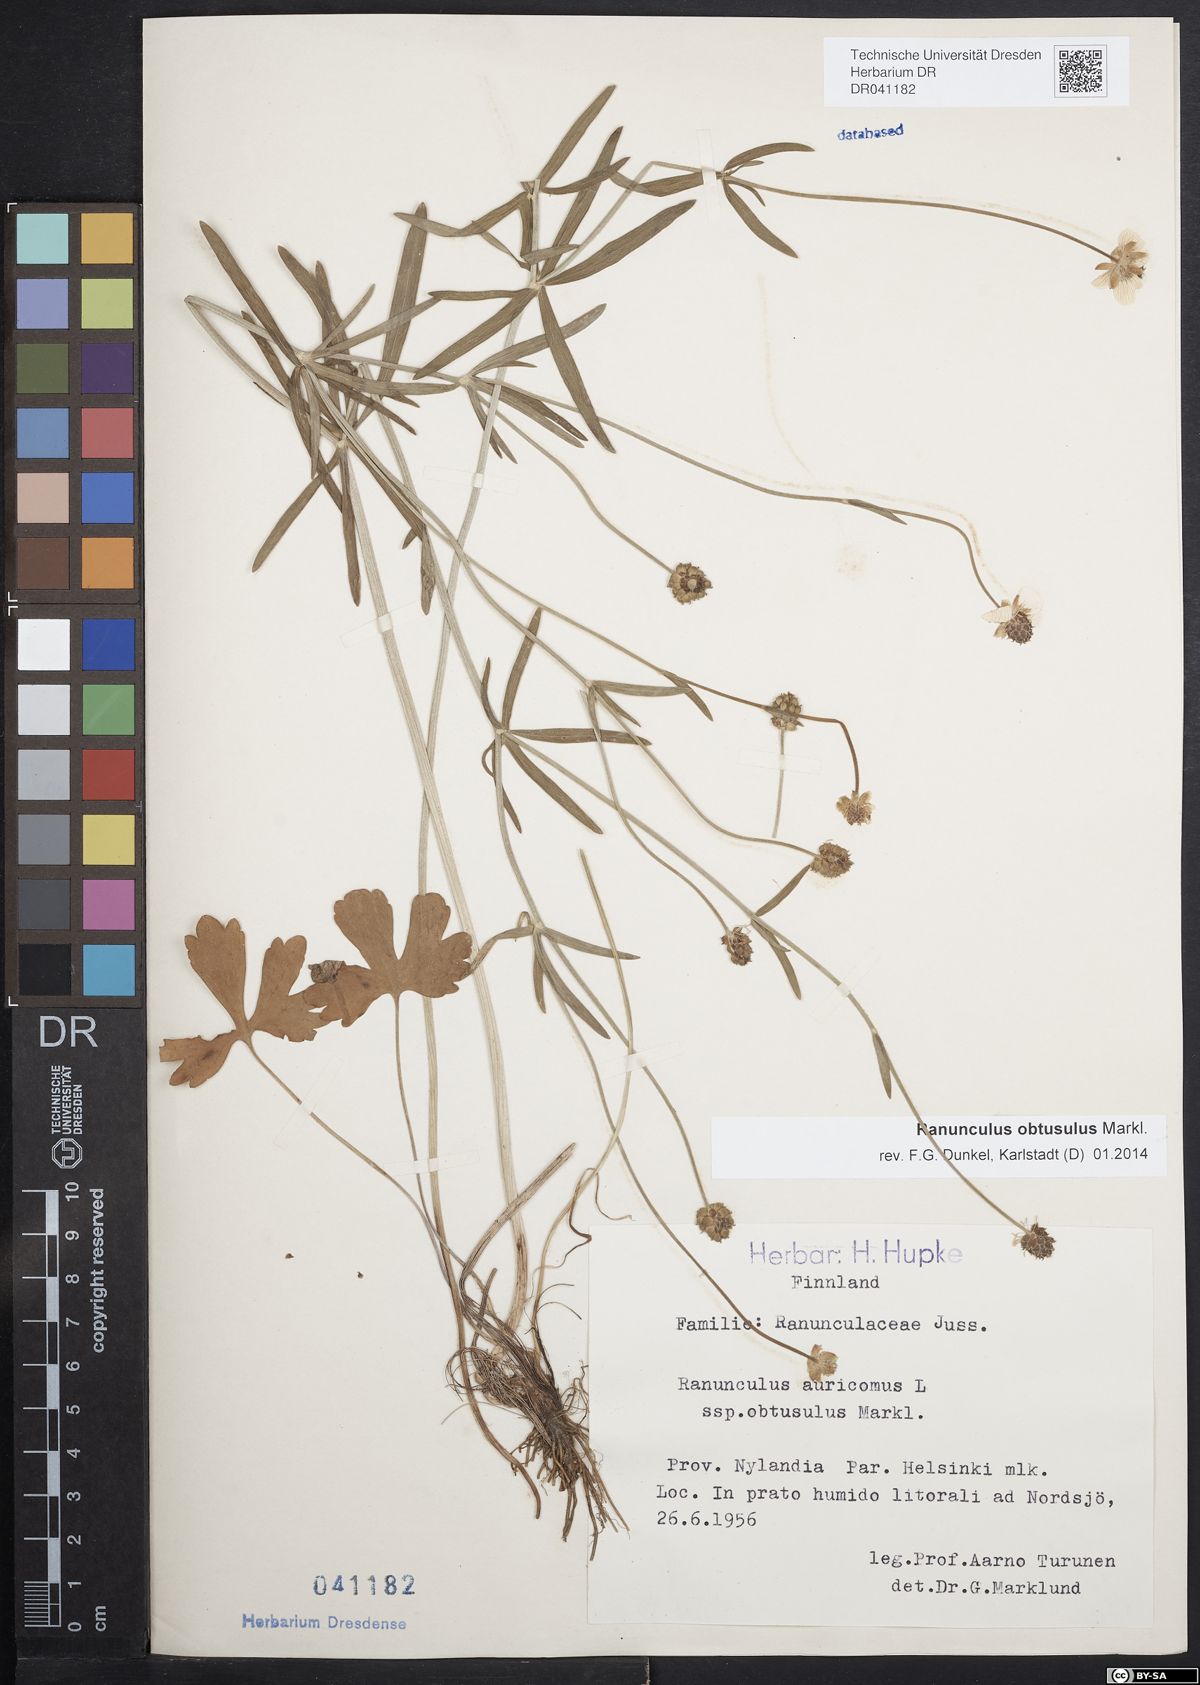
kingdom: Plantae
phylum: Tracheophyta
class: Magnoliopsida
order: Ranunculales
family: Ranunculaceae
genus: Ranunculus
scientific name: Ranunculus auricomus
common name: Goldilocks buttercup
